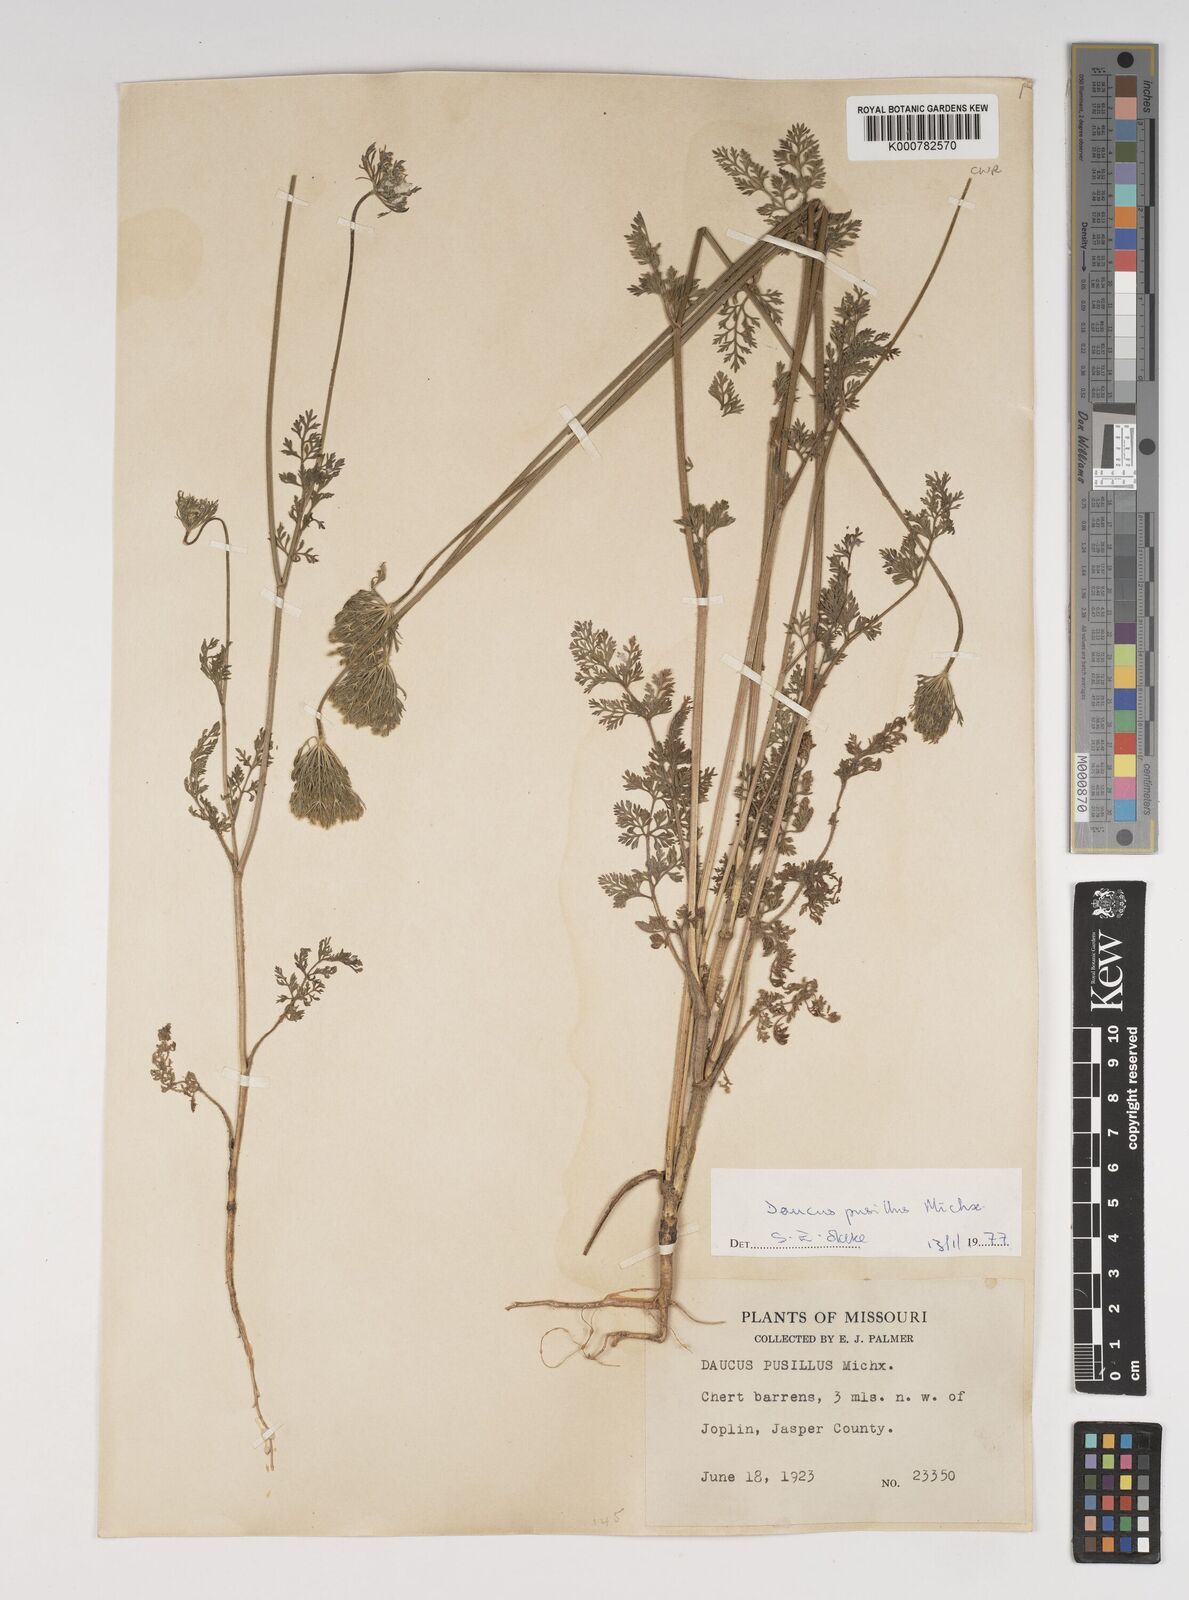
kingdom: Plantae
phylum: Tracheophyta
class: Magnoliopsida
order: Apiales
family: Apiaceae
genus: Daucus
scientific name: Daucus pusillus
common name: Southwest wild carrot
